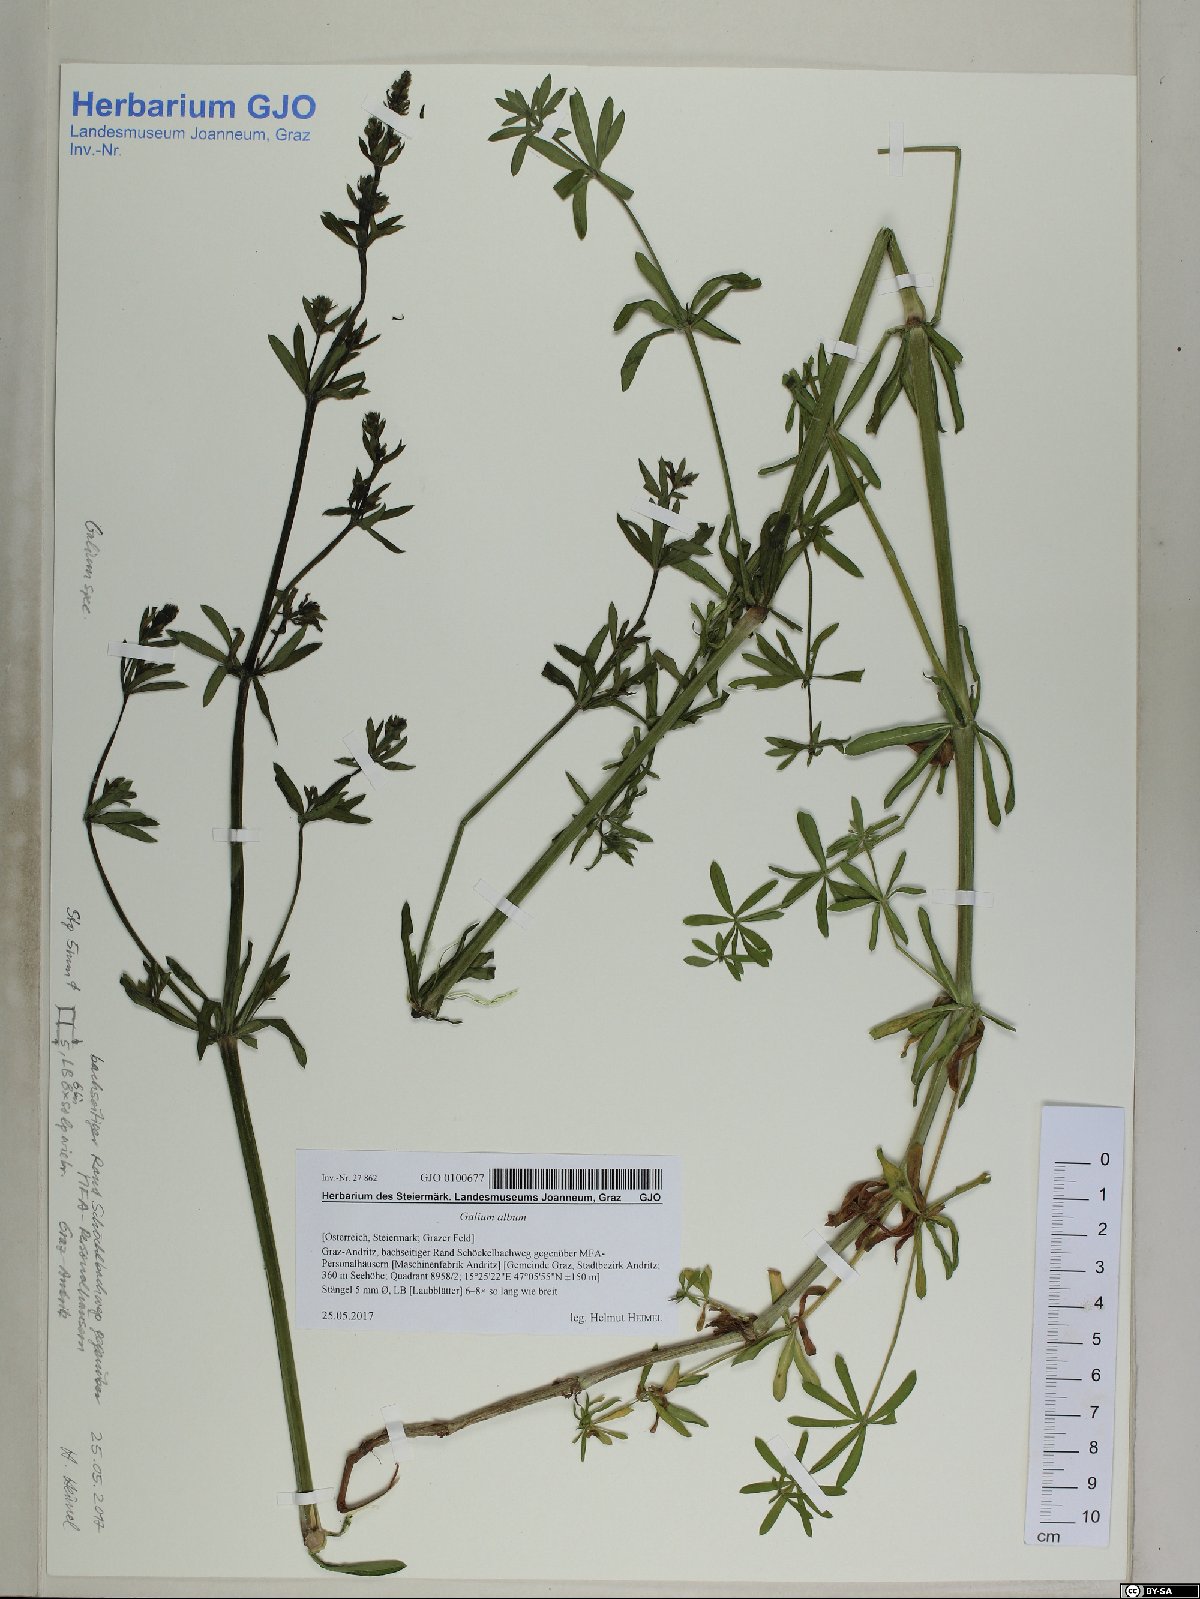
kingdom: Plantae
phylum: Tracheophyta
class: Magnoliopsida
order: Gentianales
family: Rubiaceae
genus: Galium
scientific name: Galium album
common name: White bedstraw
